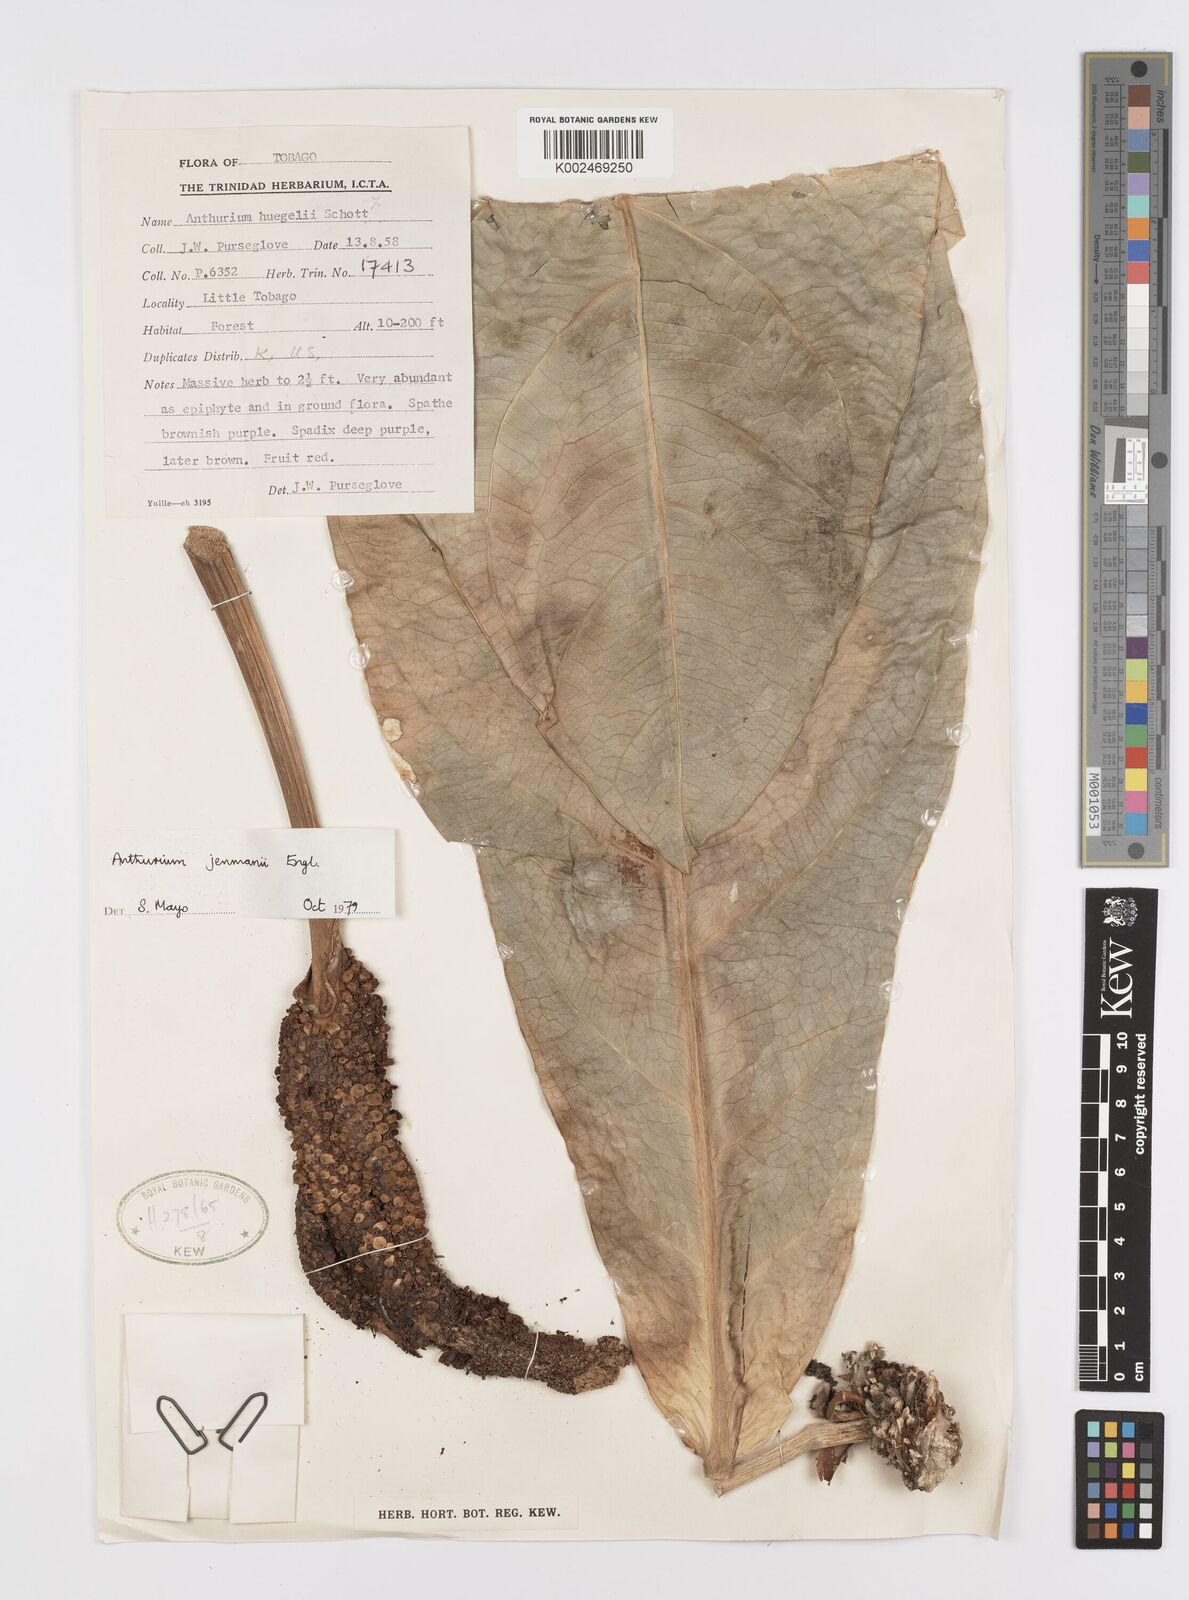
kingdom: Plantae
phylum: Tracheophyta
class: Liliopsida
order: Alismatales
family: Araceae
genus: Anthurium
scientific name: Anthurium jenmanii
